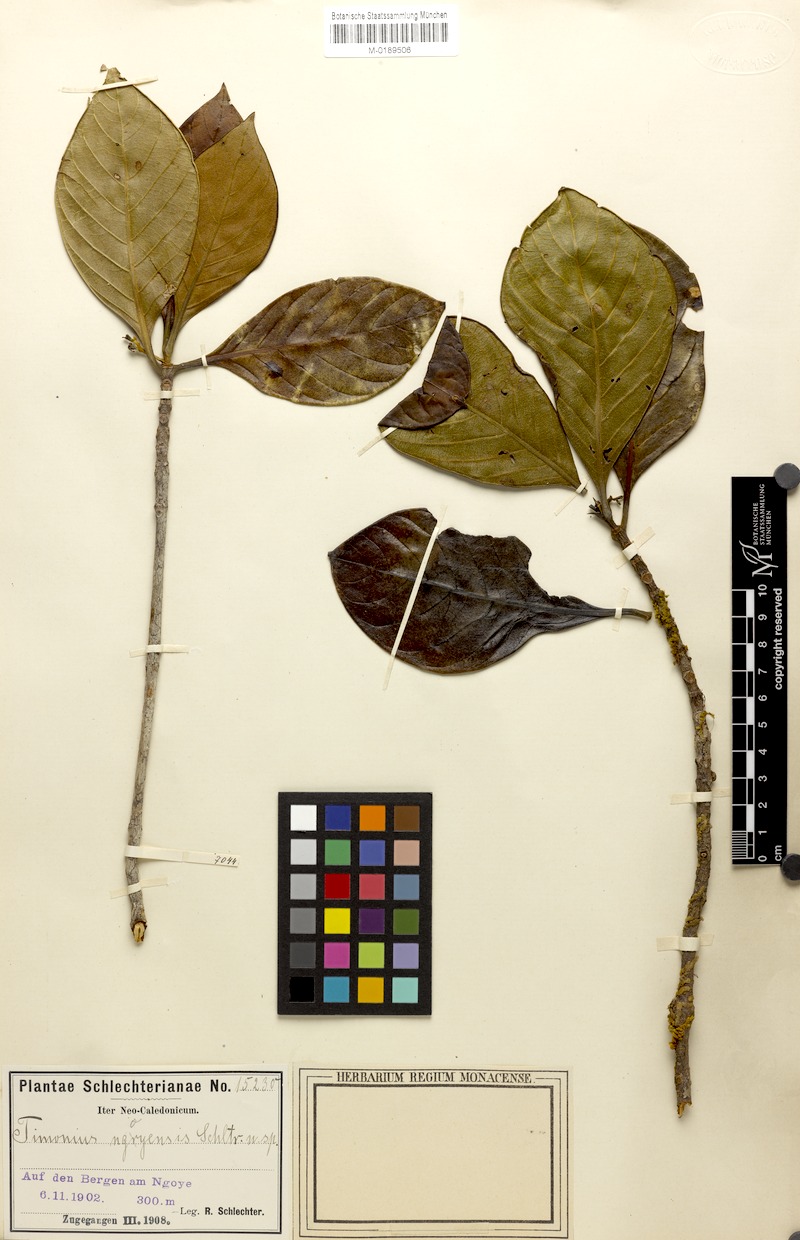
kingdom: Plantae
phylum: Tracheophyta
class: Magnoliopsida
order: Gentianales
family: Rubiaceae
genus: Achilleanthus
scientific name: Achilleanthus ngoyensis
